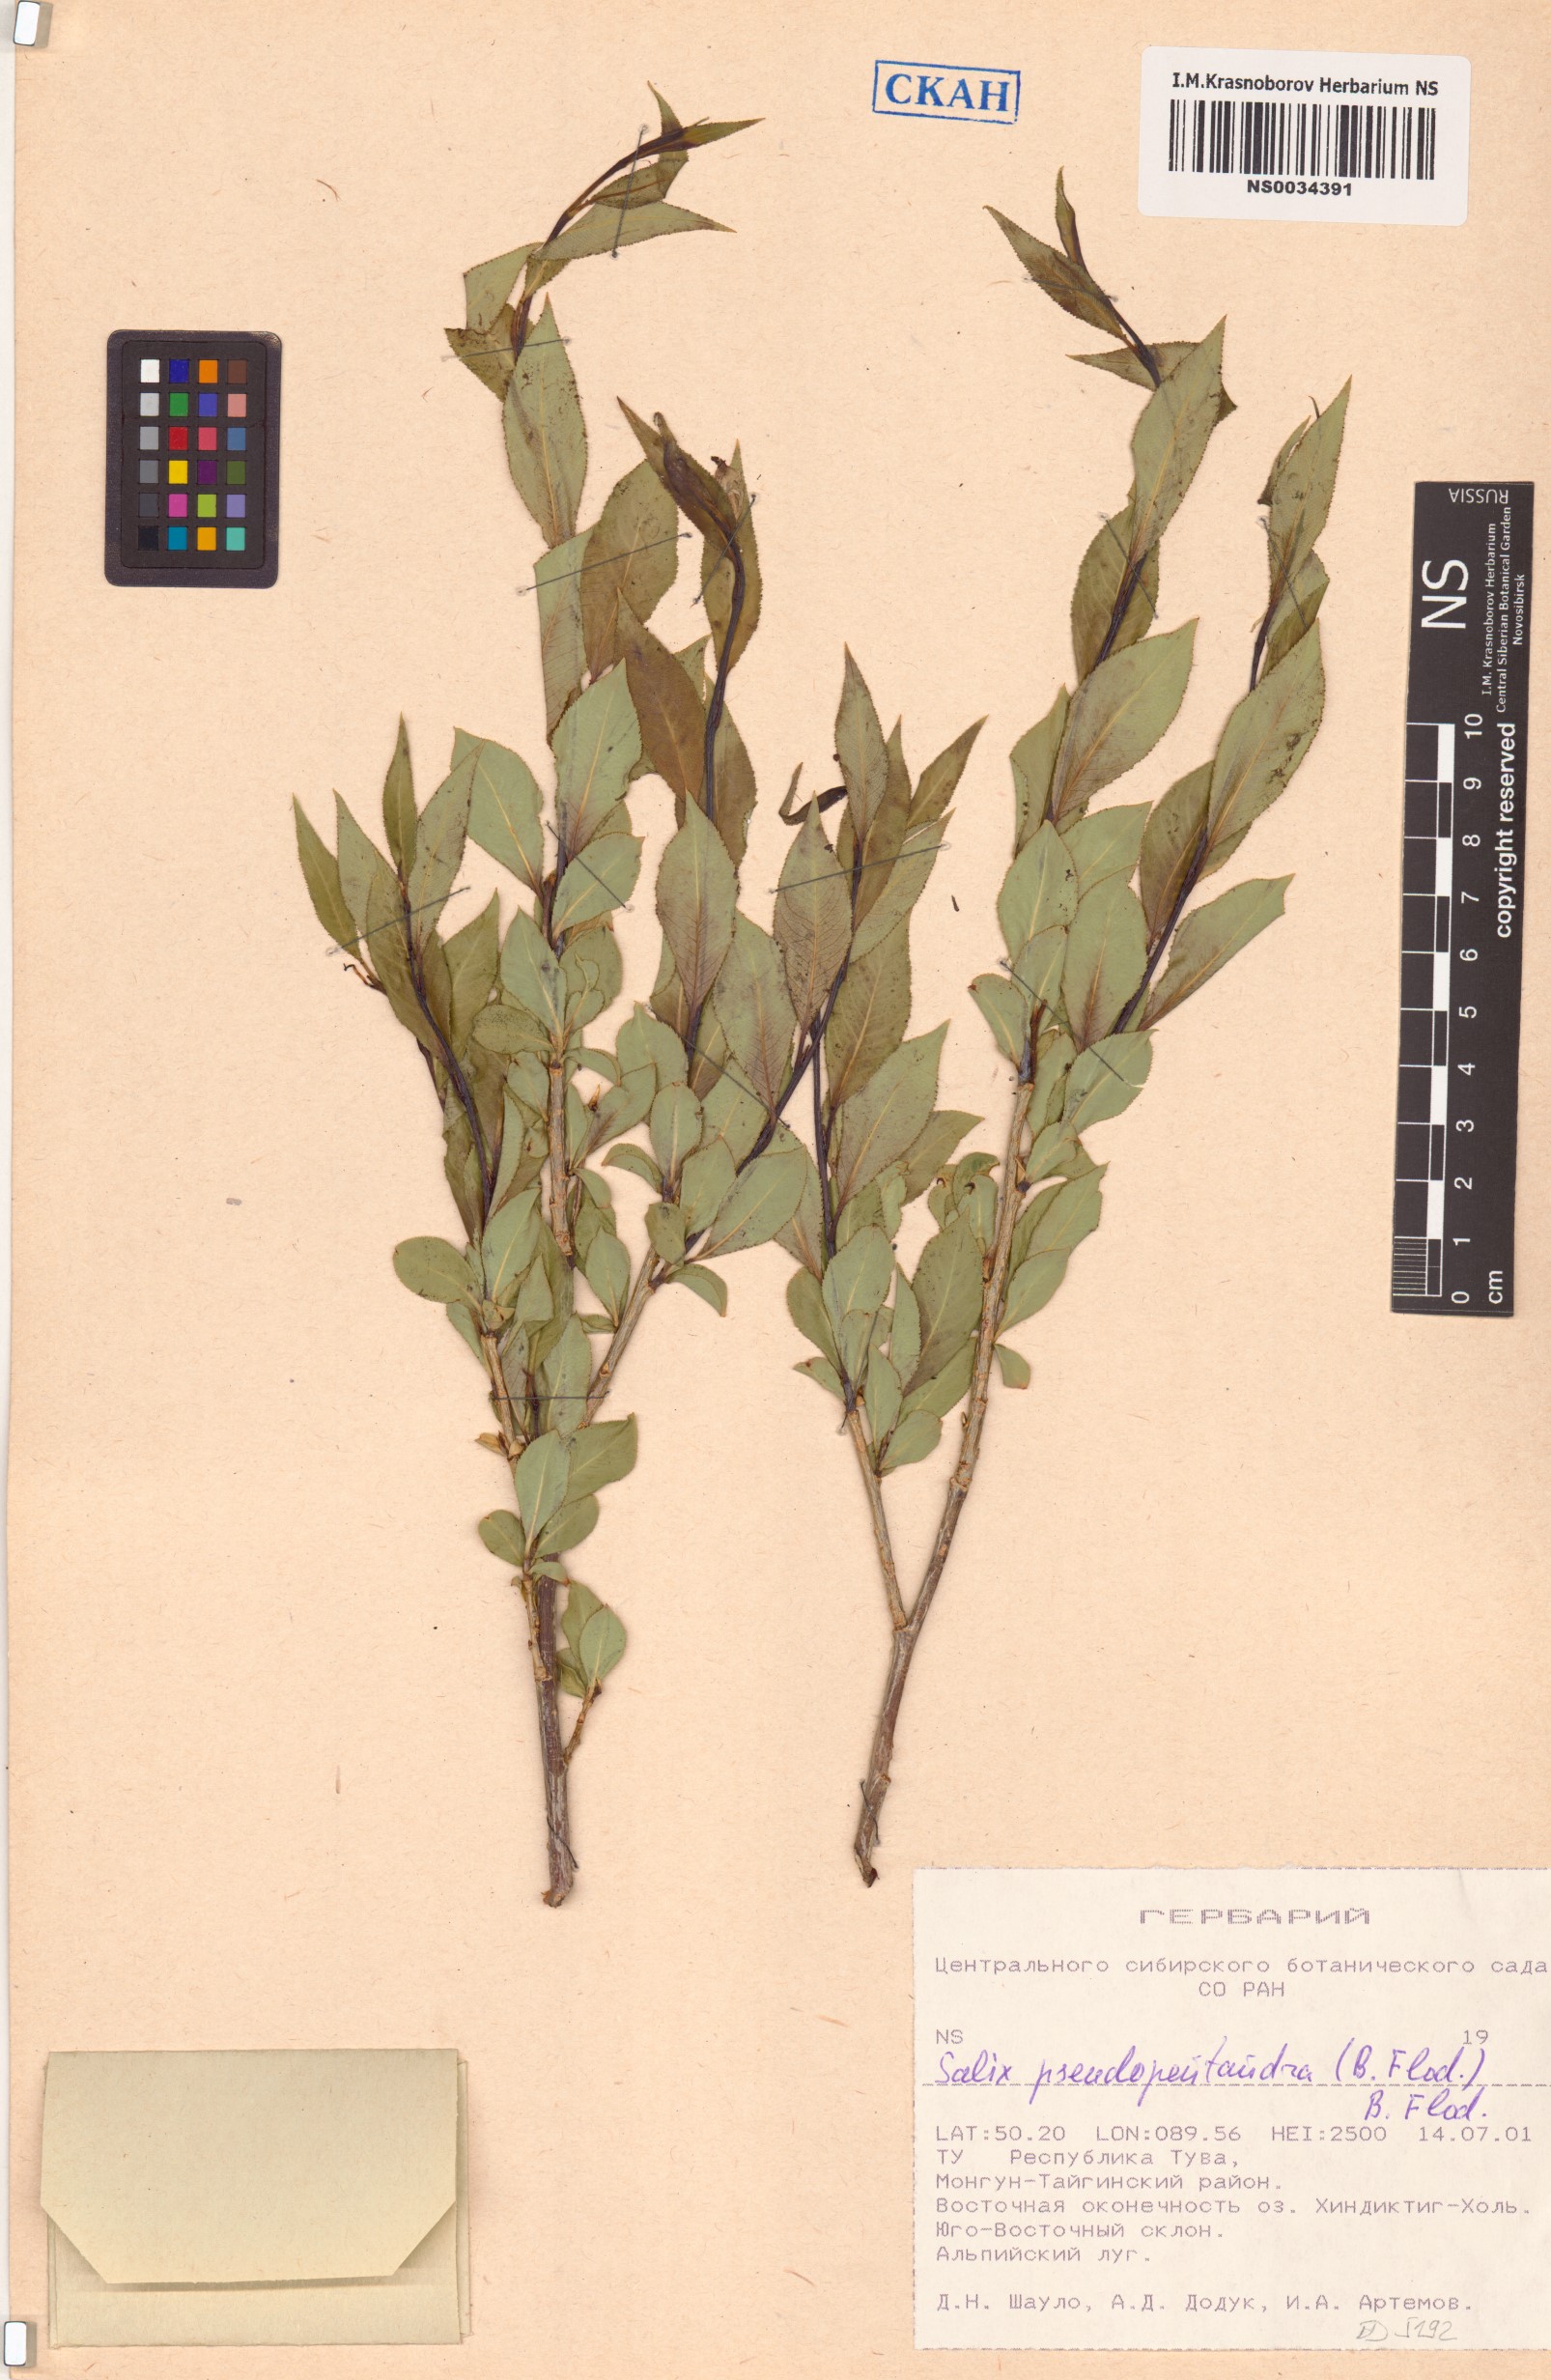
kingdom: Plantae
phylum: Tracheophyta
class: Magnoliopsida
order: Malpighiales
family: Salicaceae
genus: Salix
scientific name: Salix pseudopentandra
